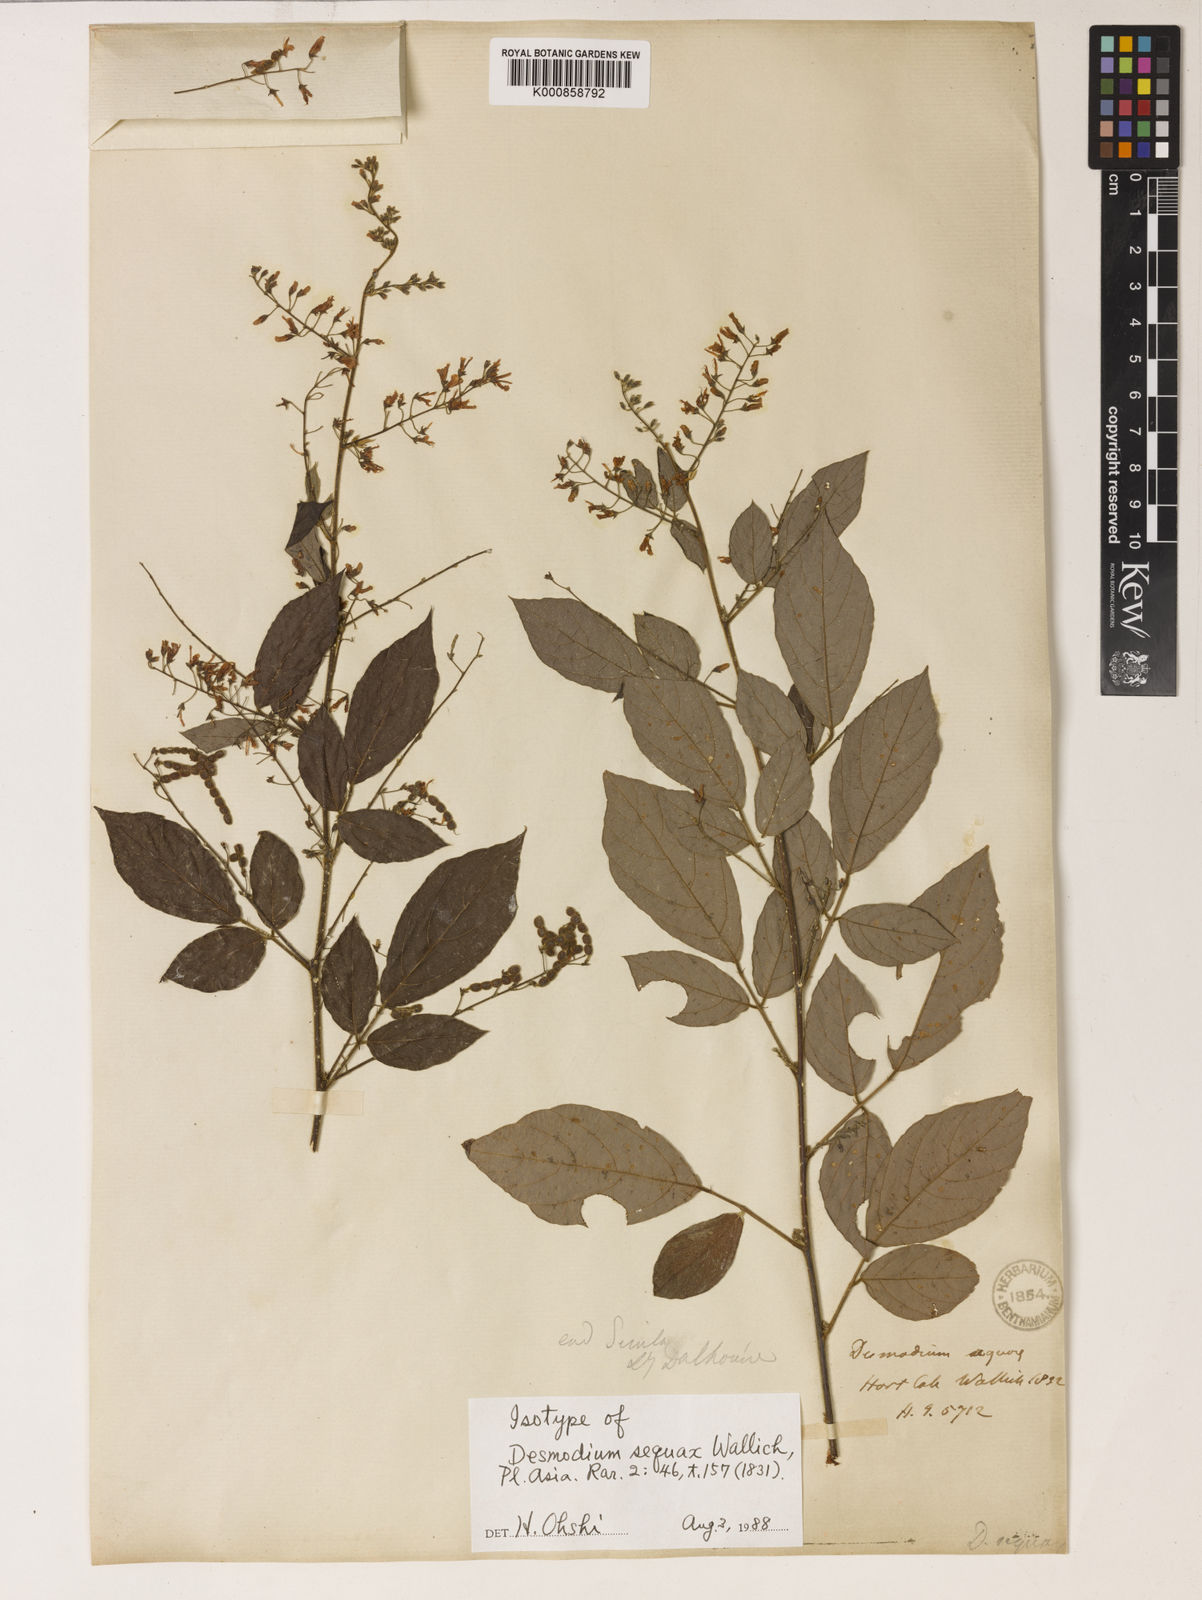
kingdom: Plantae
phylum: Tracheophyta
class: Magnoliopsida
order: Fabales
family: Fabaceae
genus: Puhuaea
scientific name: Puhuaea sequax
